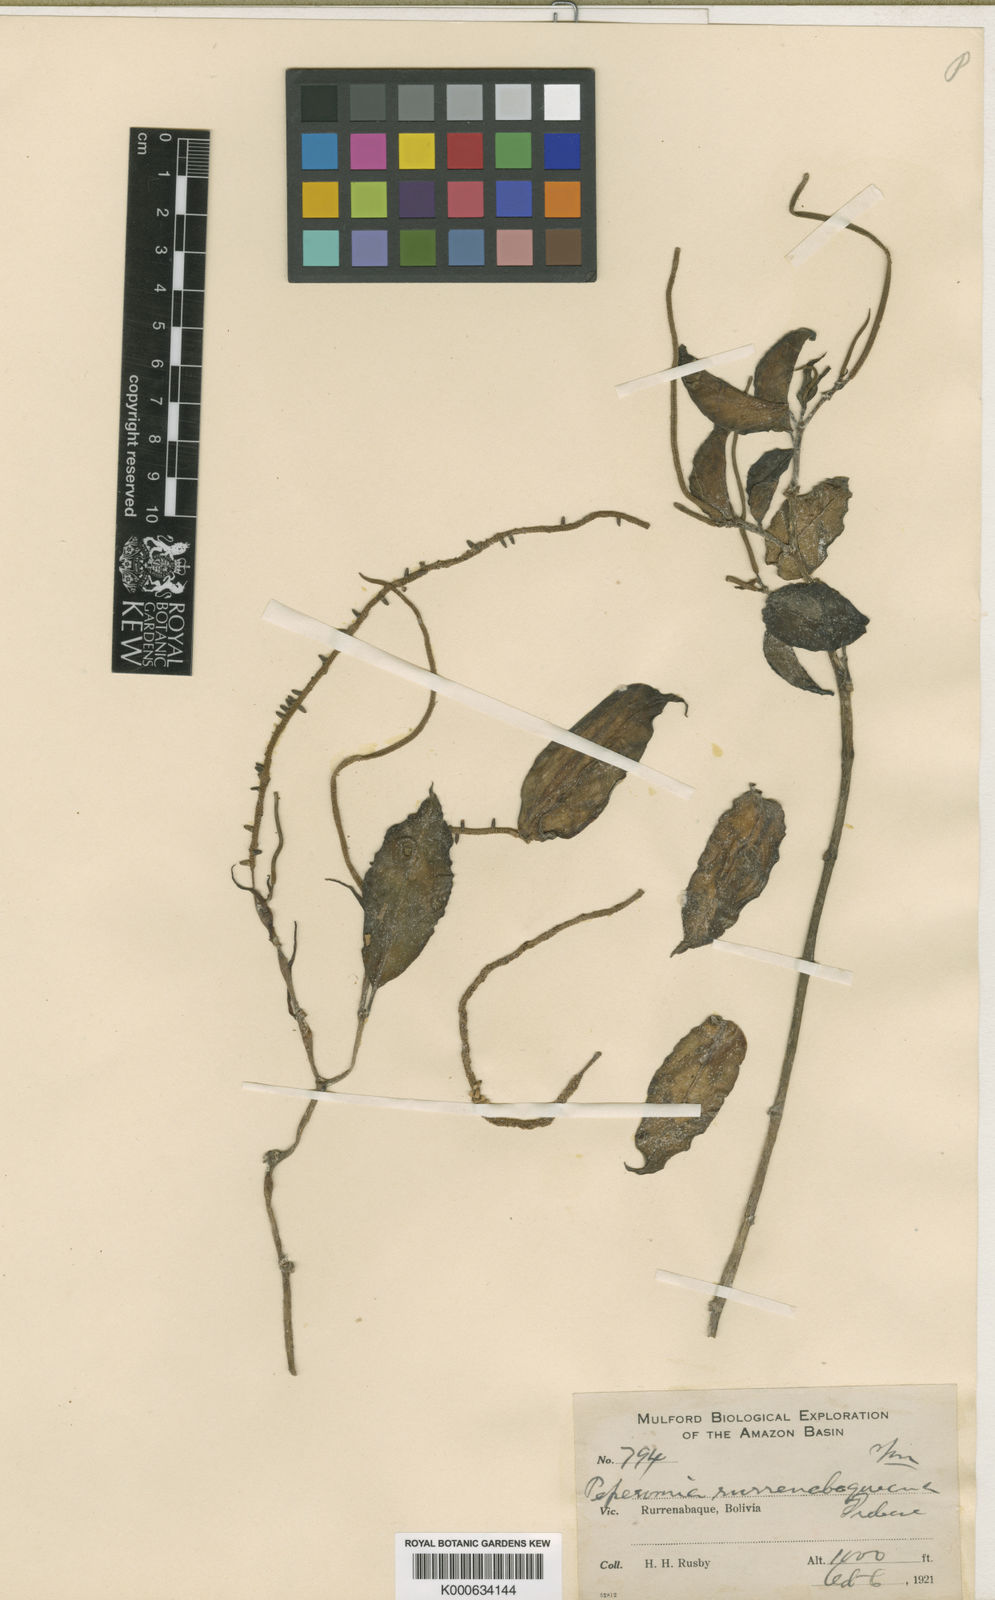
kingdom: Plantae
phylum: Tracheophyta
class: Magnoliopsida
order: Piperales
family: Piperaceae
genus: Peperomia
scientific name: Peperomia rurrenabaqueana
